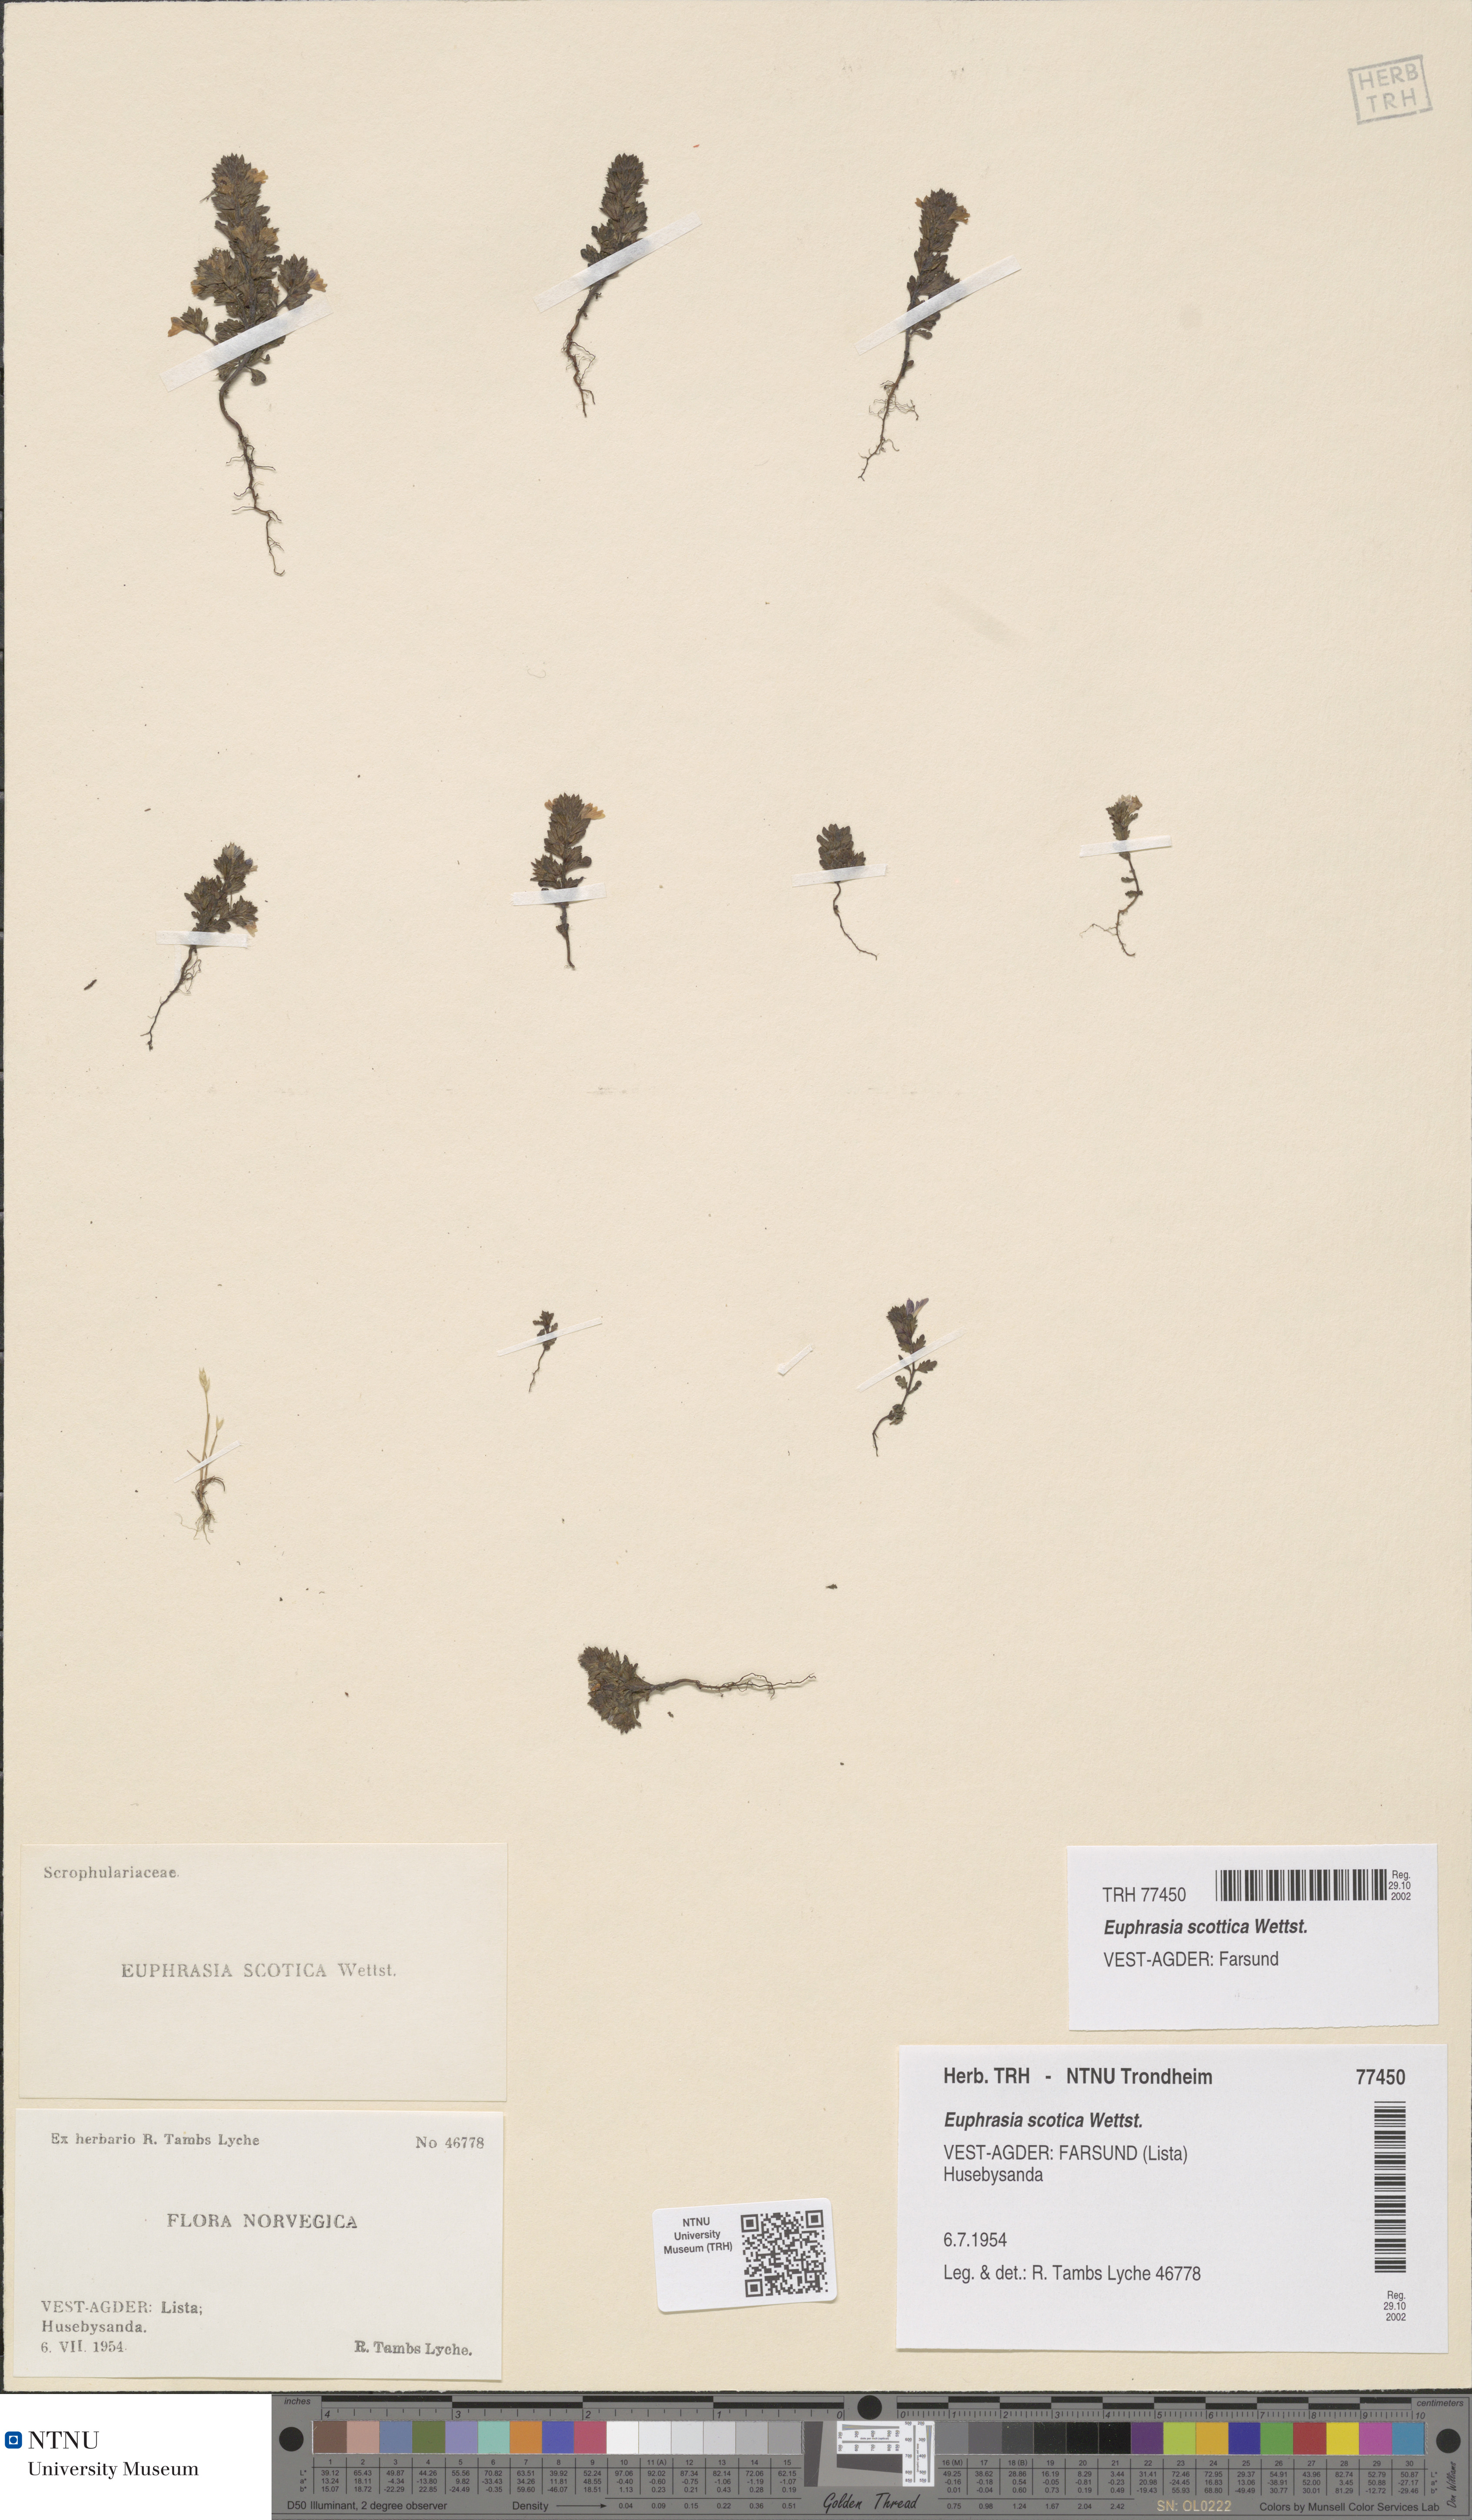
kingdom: Plantae
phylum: Tracheophyta
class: Magnoliopsida
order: Lamiales
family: Orobanchaceae
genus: Euphrasia
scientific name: Euphrasia scottica
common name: Slender scottish eyebright
